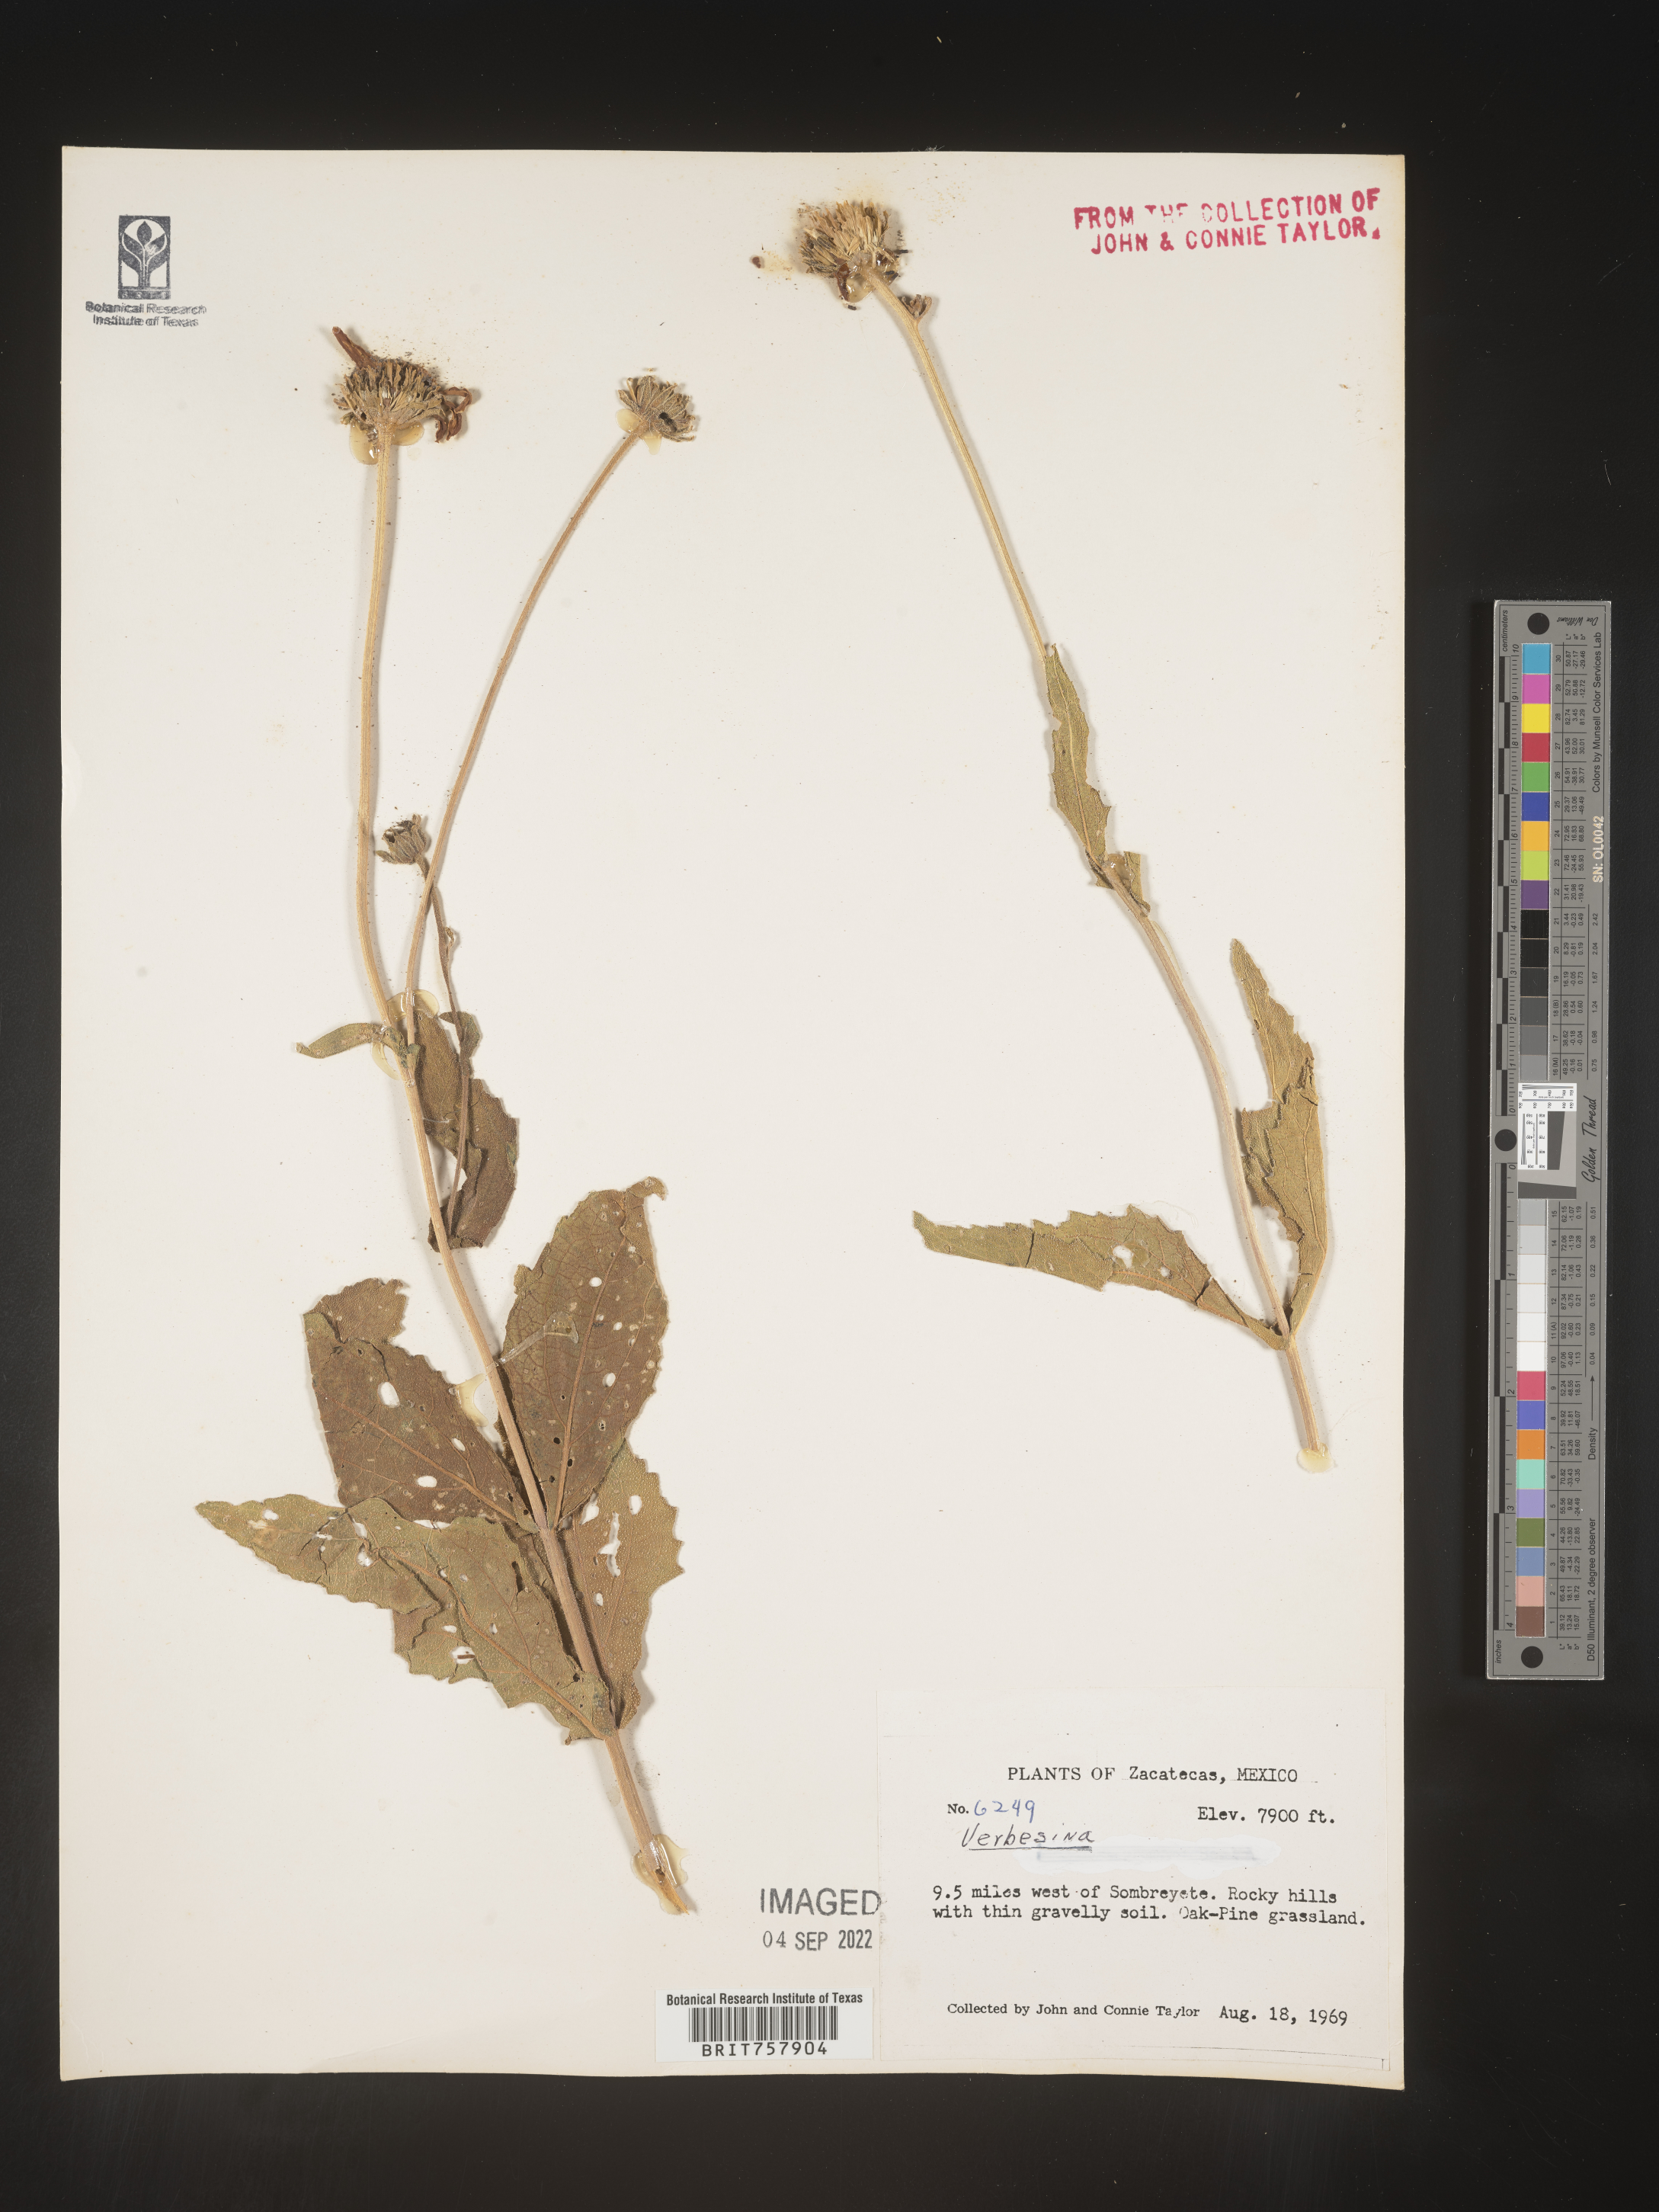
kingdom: Plantae
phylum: Tracheophyta
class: Magnoliopsida
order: Asterales
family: Asteraceae
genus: Verbesina
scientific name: Verbesina
